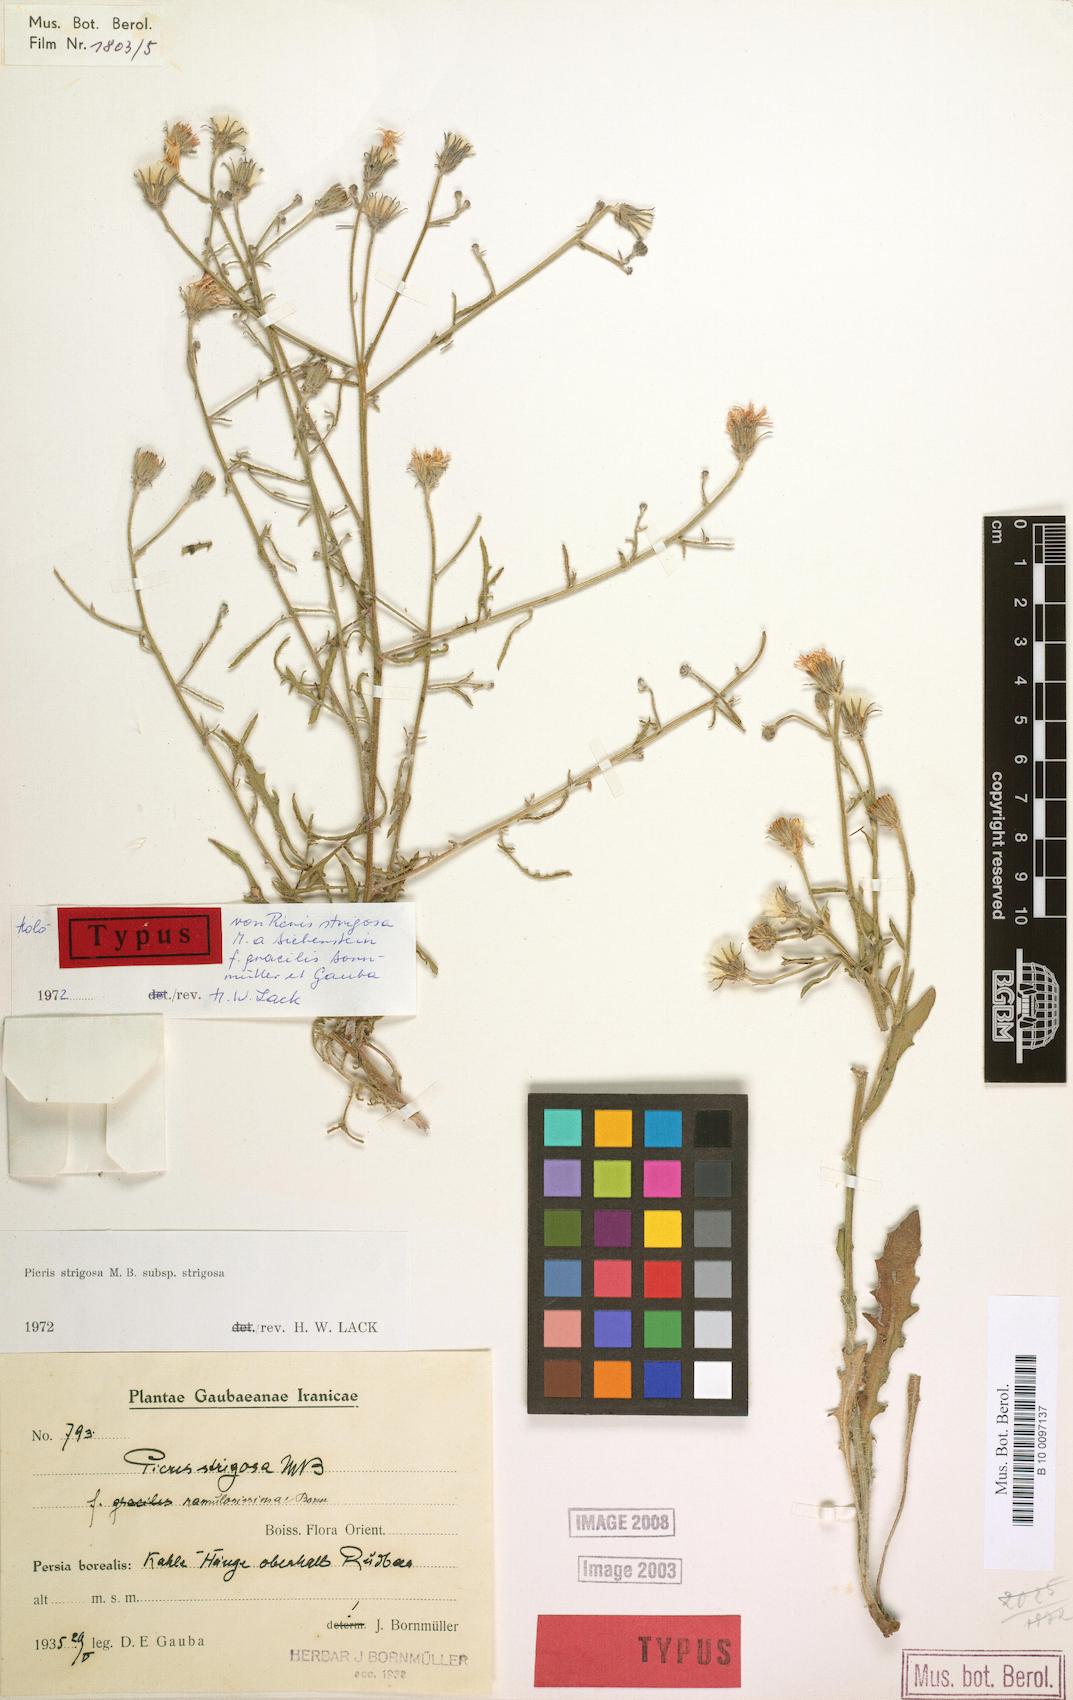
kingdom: Plantae
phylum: Tracheophyta
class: Magnoliopsida
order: Asterales
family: Asteraceae
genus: Picris
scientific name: Picris strigosa
